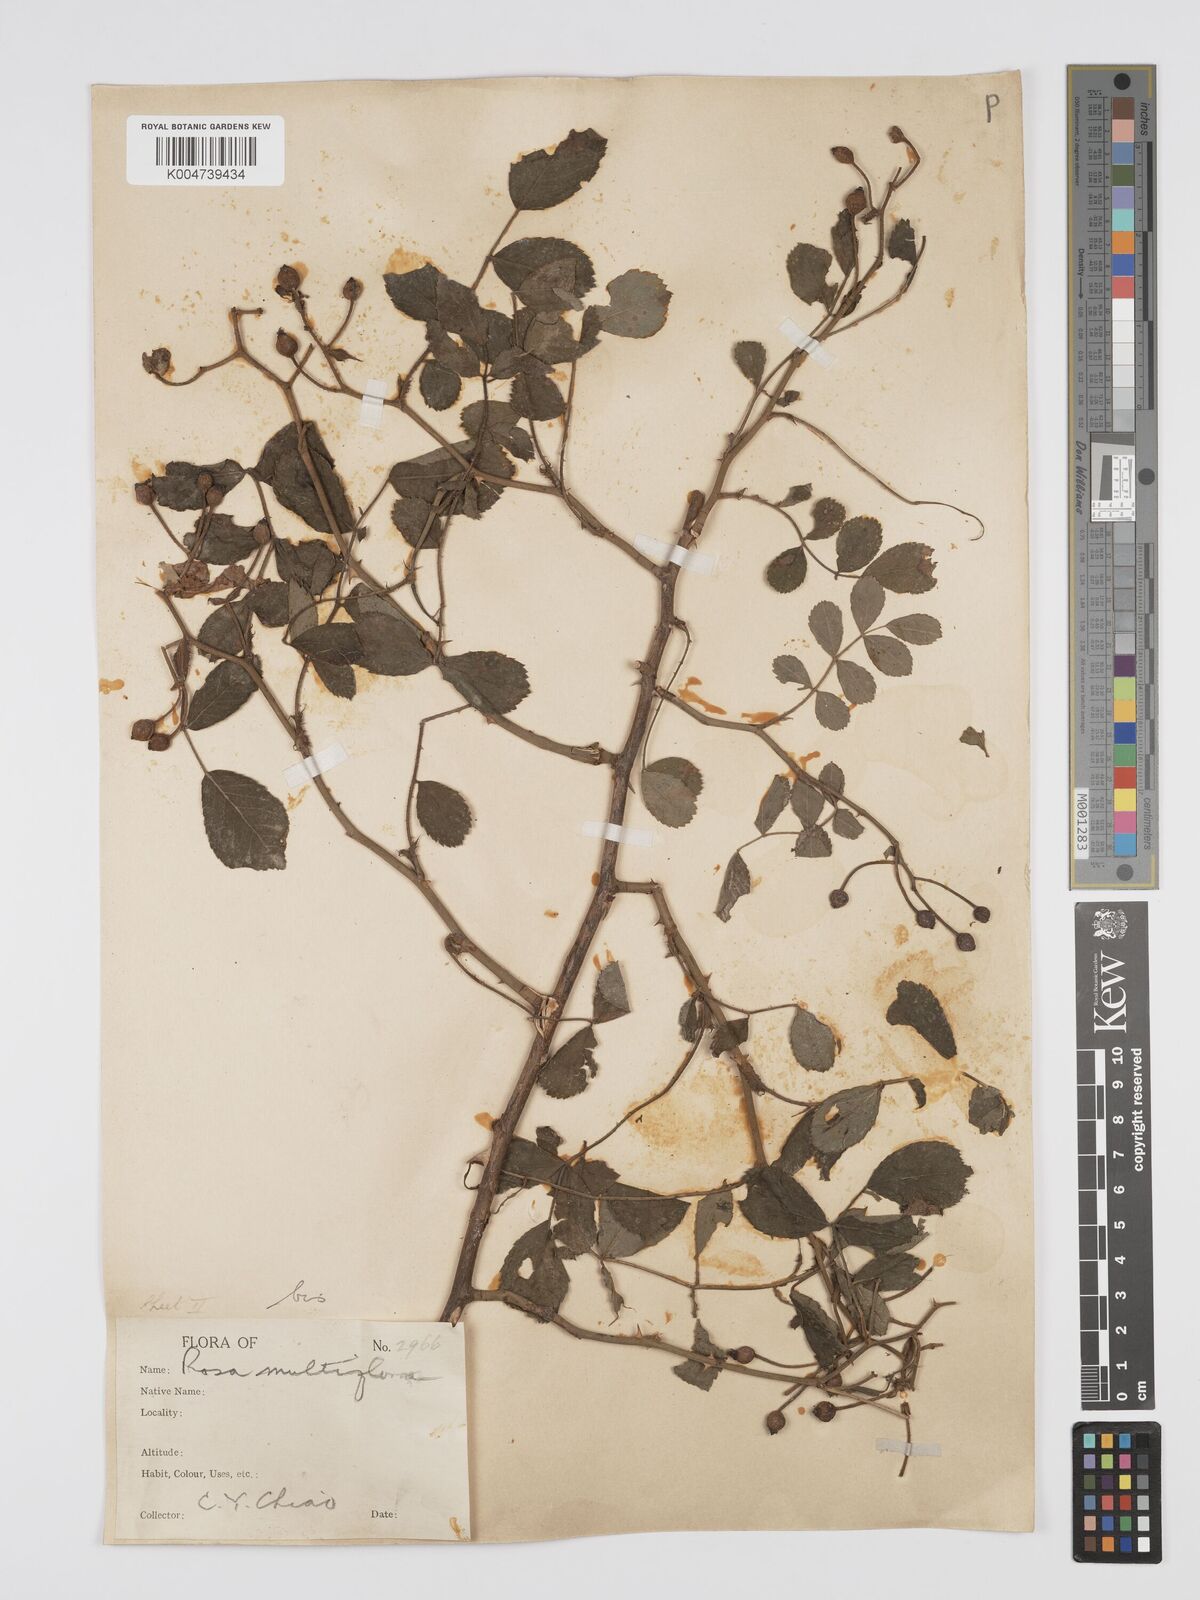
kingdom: Plantae
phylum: Tracheophyta
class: Magnoliopsida
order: Rosales
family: Rosaceae
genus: Rosa
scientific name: Rosa
